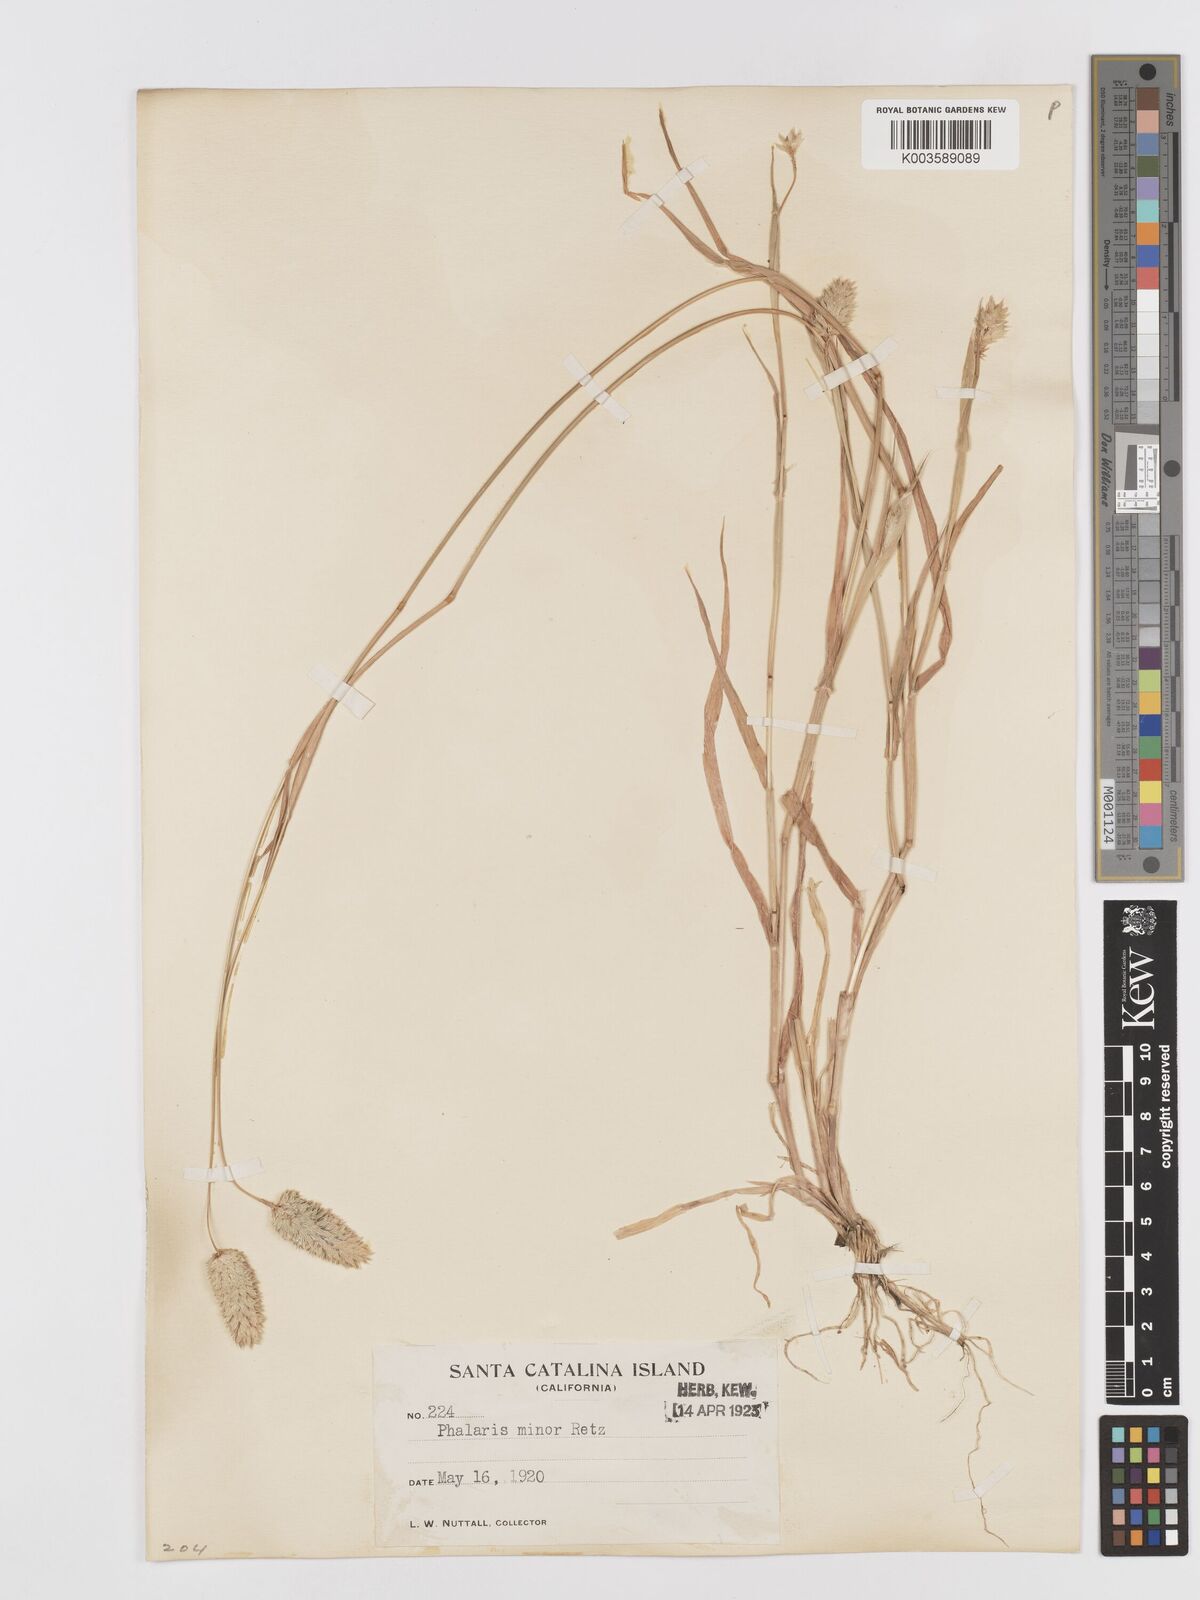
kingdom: Plantae
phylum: Tracheophyta
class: Liliopsida
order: Poales
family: Poaceae
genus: Phalaris
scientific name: Phalaris minor
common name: Littleseed canarygrass
